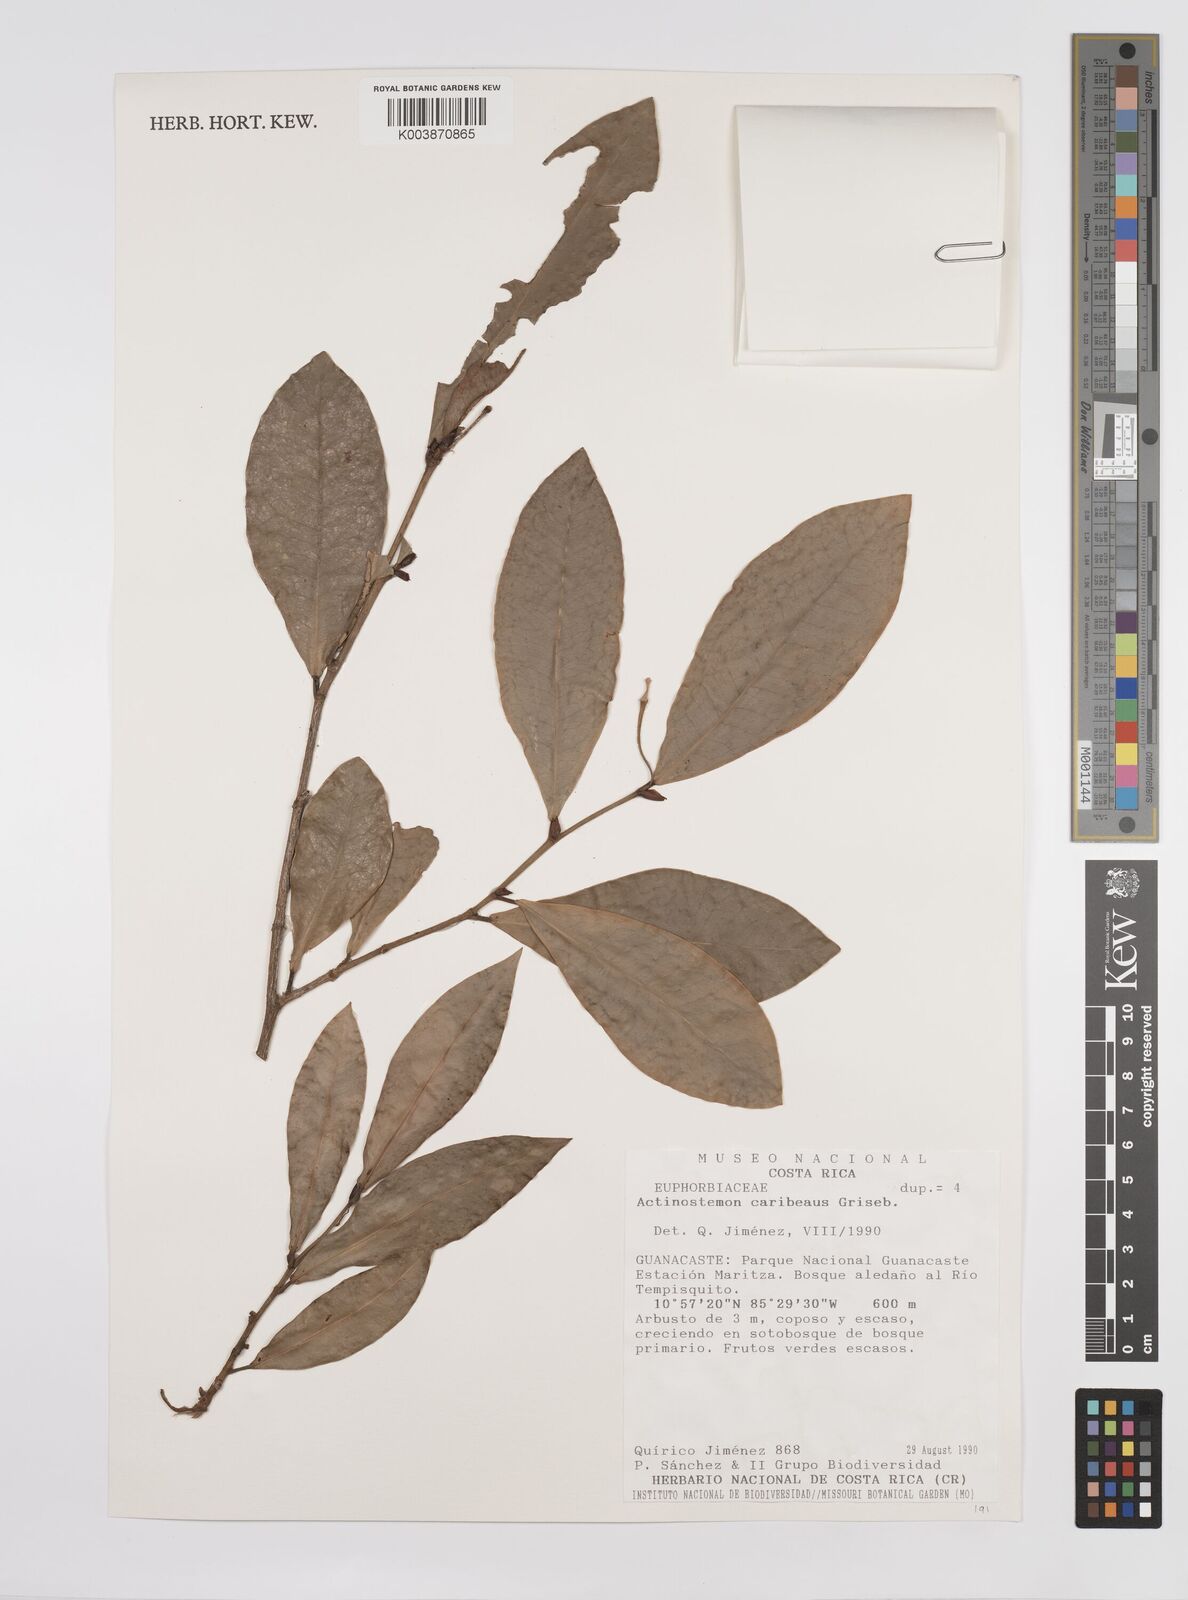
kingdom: Plantae
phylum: Tracheophyta
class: Magnoliopsida
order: Malpighiales
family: Euphorbiaceae
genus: Actinostemon
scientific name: Actinostemon caribaeus
